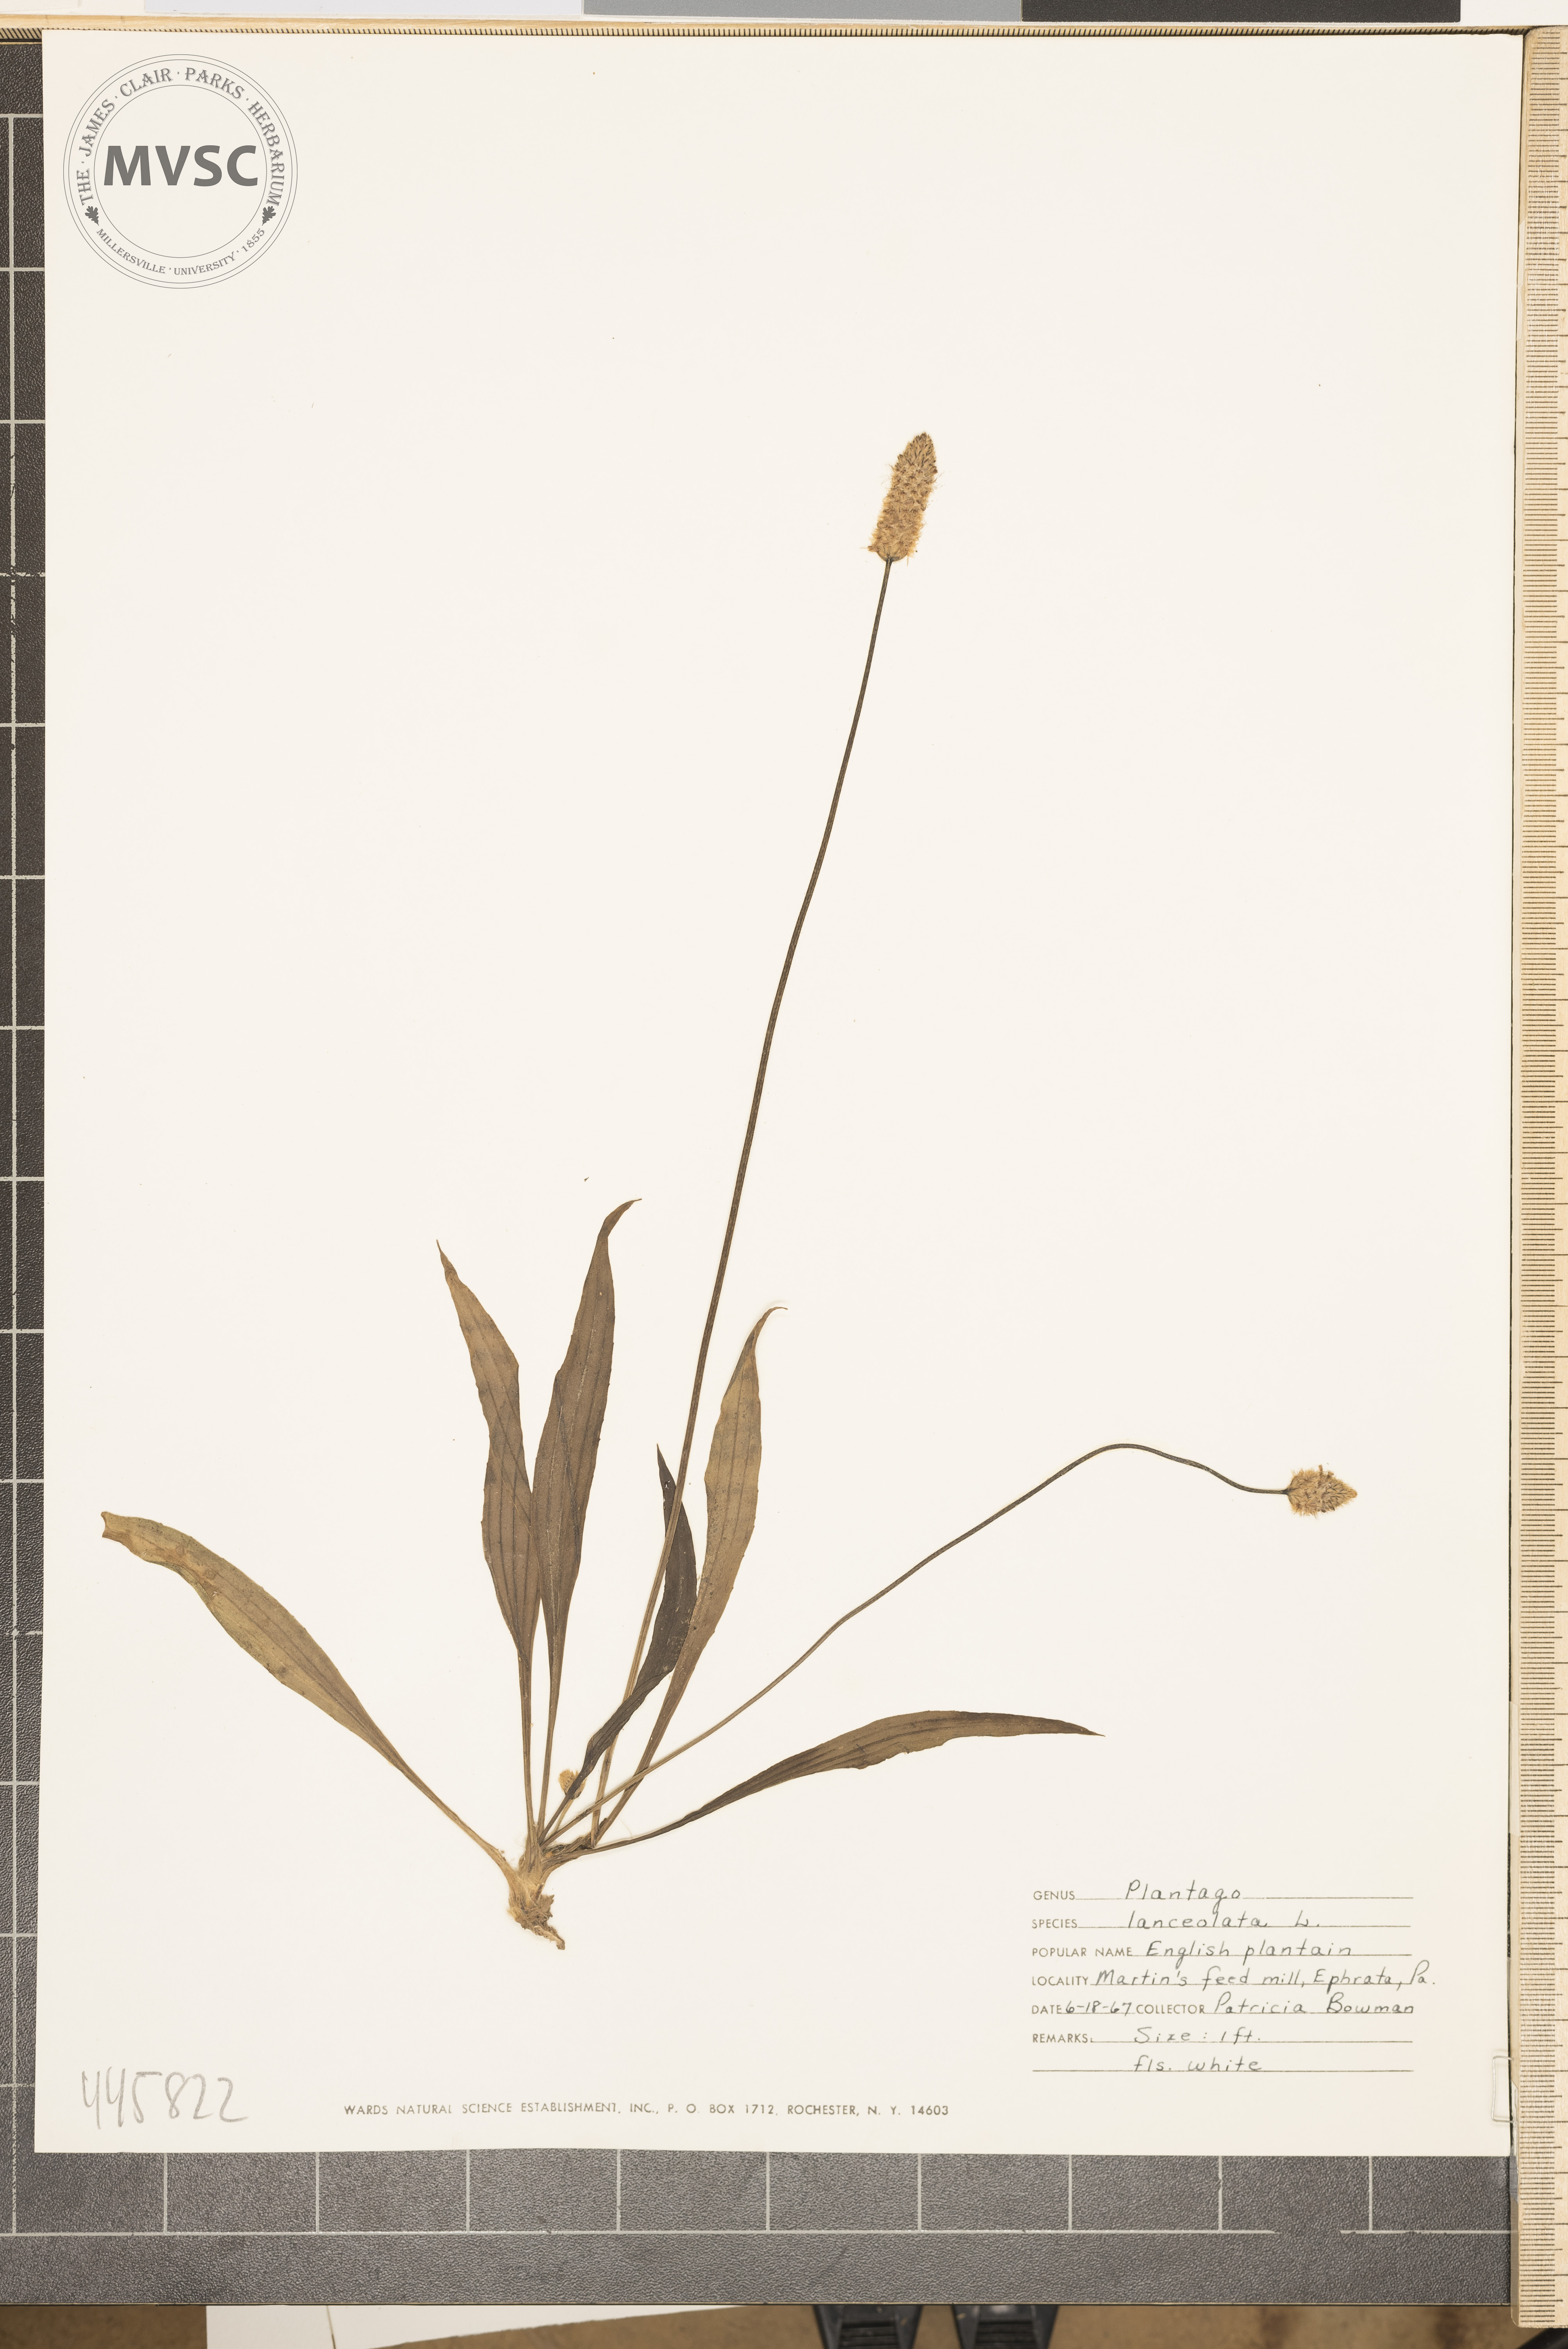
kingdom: Plantae
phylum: Tracheophyta
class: Magnoliopsida
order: Lamiales
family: Plantaginaceae
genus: Plantago
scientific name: Plantago lanceolata
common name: English plantain
